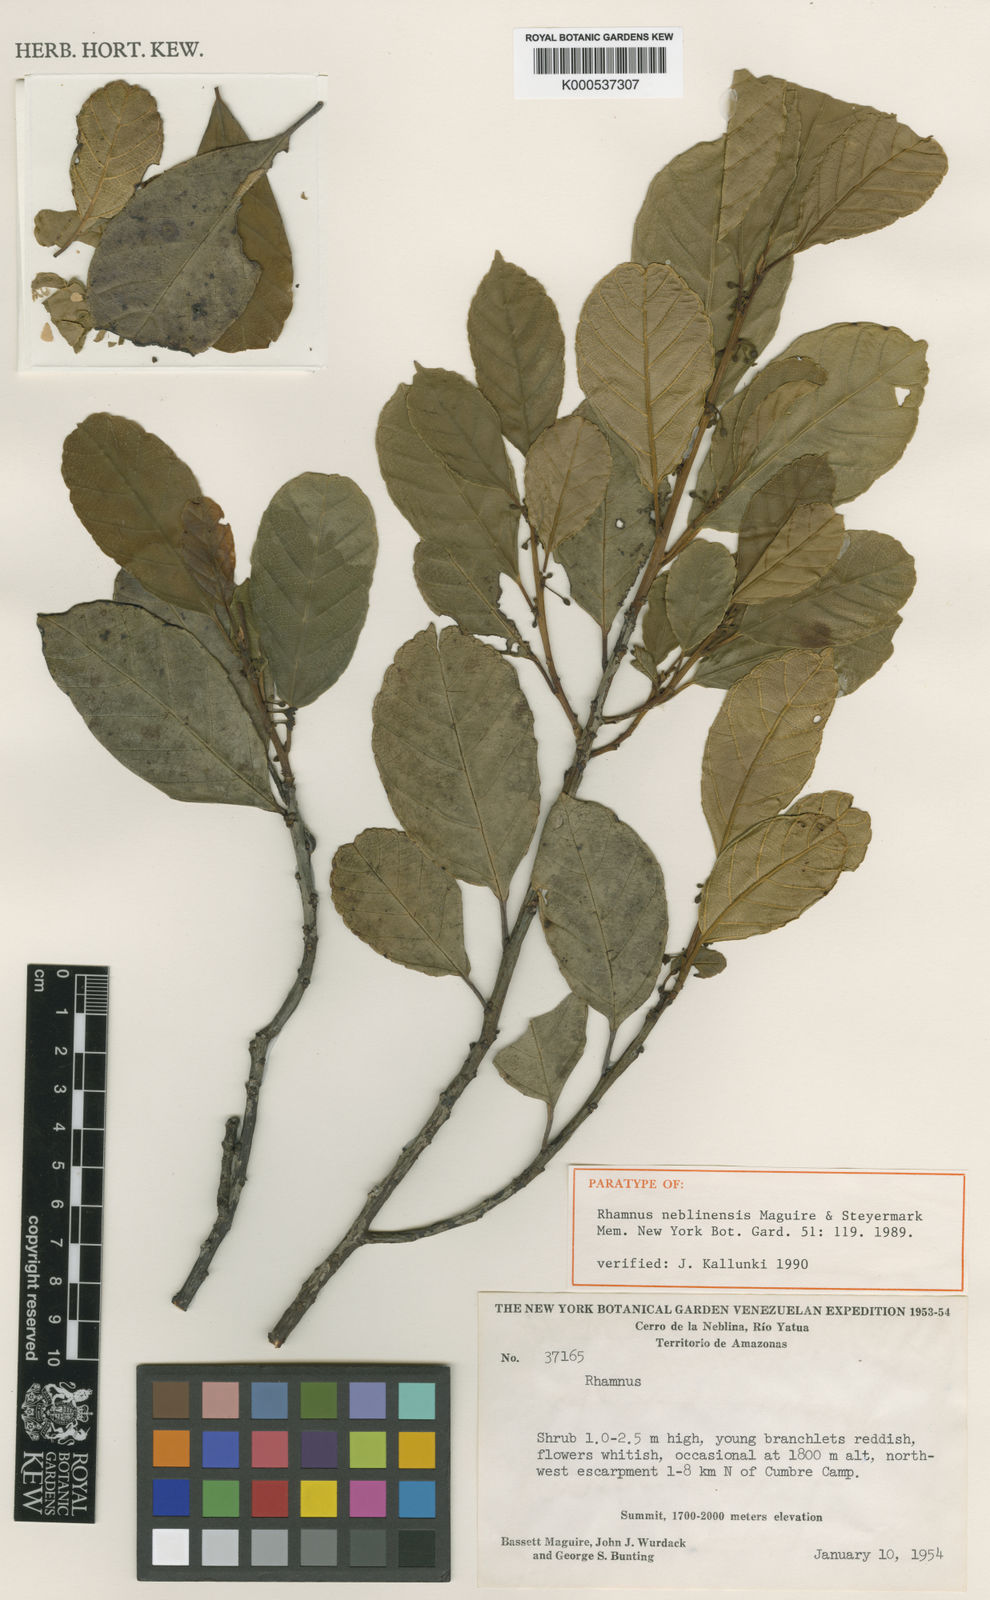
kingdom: Plantae
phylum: Tracheophyta
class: Magnoliopsida
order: Rosales
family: Rhamnaceae
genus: Frangula
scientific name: Frangula neblinensis
